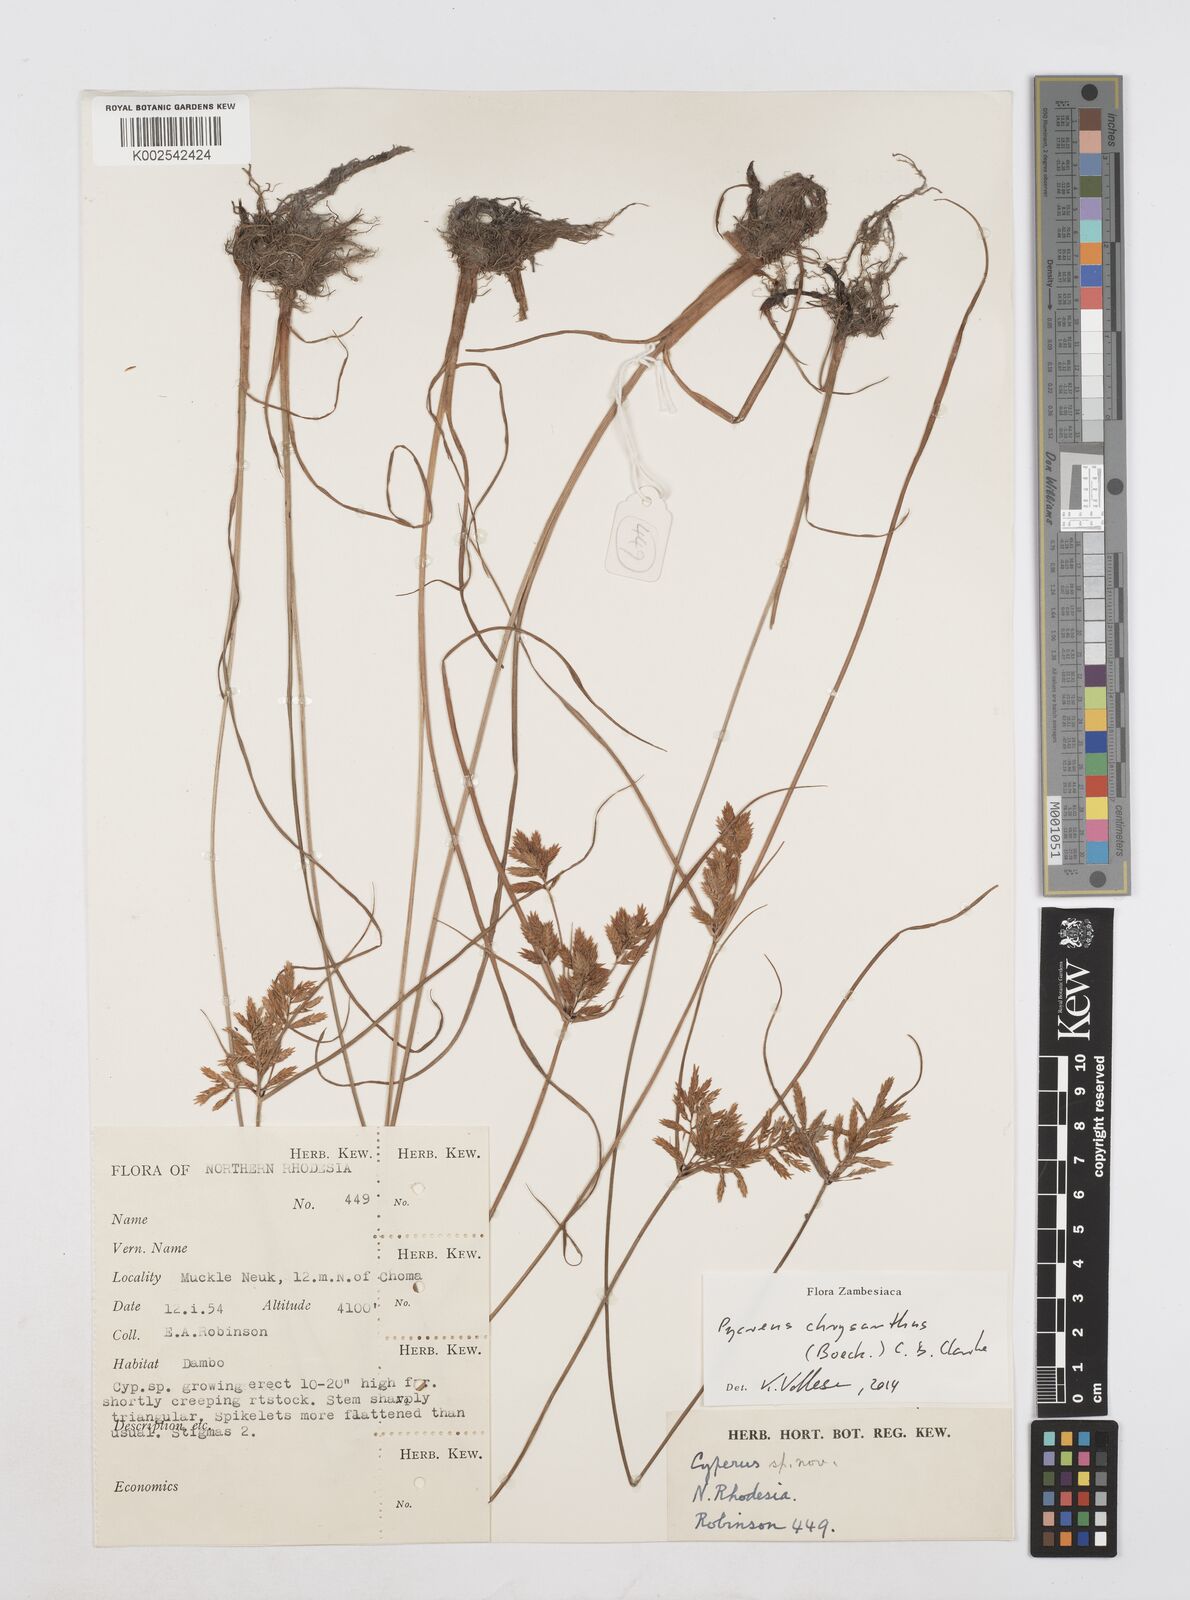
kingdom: Plantae
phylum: Tracheophyta
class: Liliopsida
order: Poales
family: Cyperaceae
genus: Cyperus
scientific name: Cyperus chrysanthus
